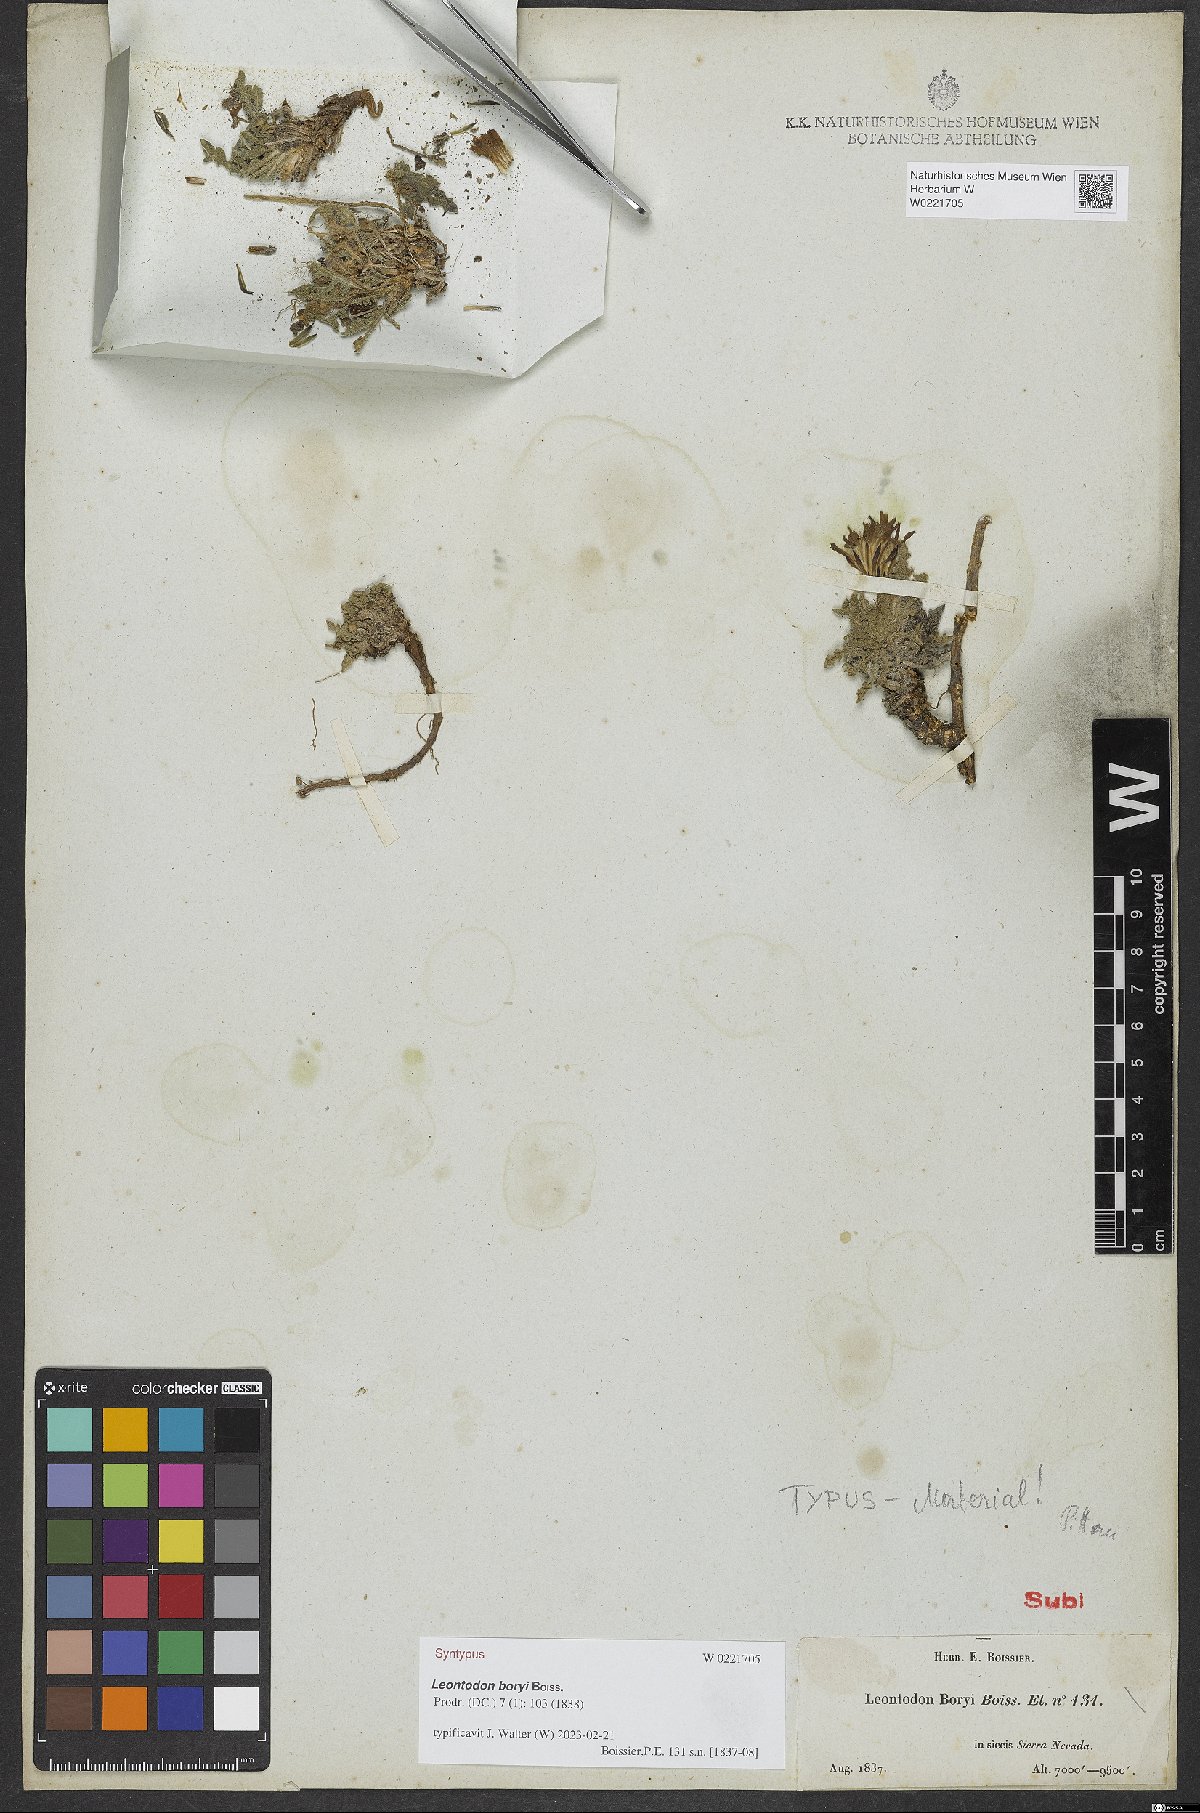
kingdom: Plantae
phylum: Tracheophyta
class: Magnoliopsida
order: Asterales
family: Asteraceae
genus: Leontodon
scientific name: Leontodon boryi
